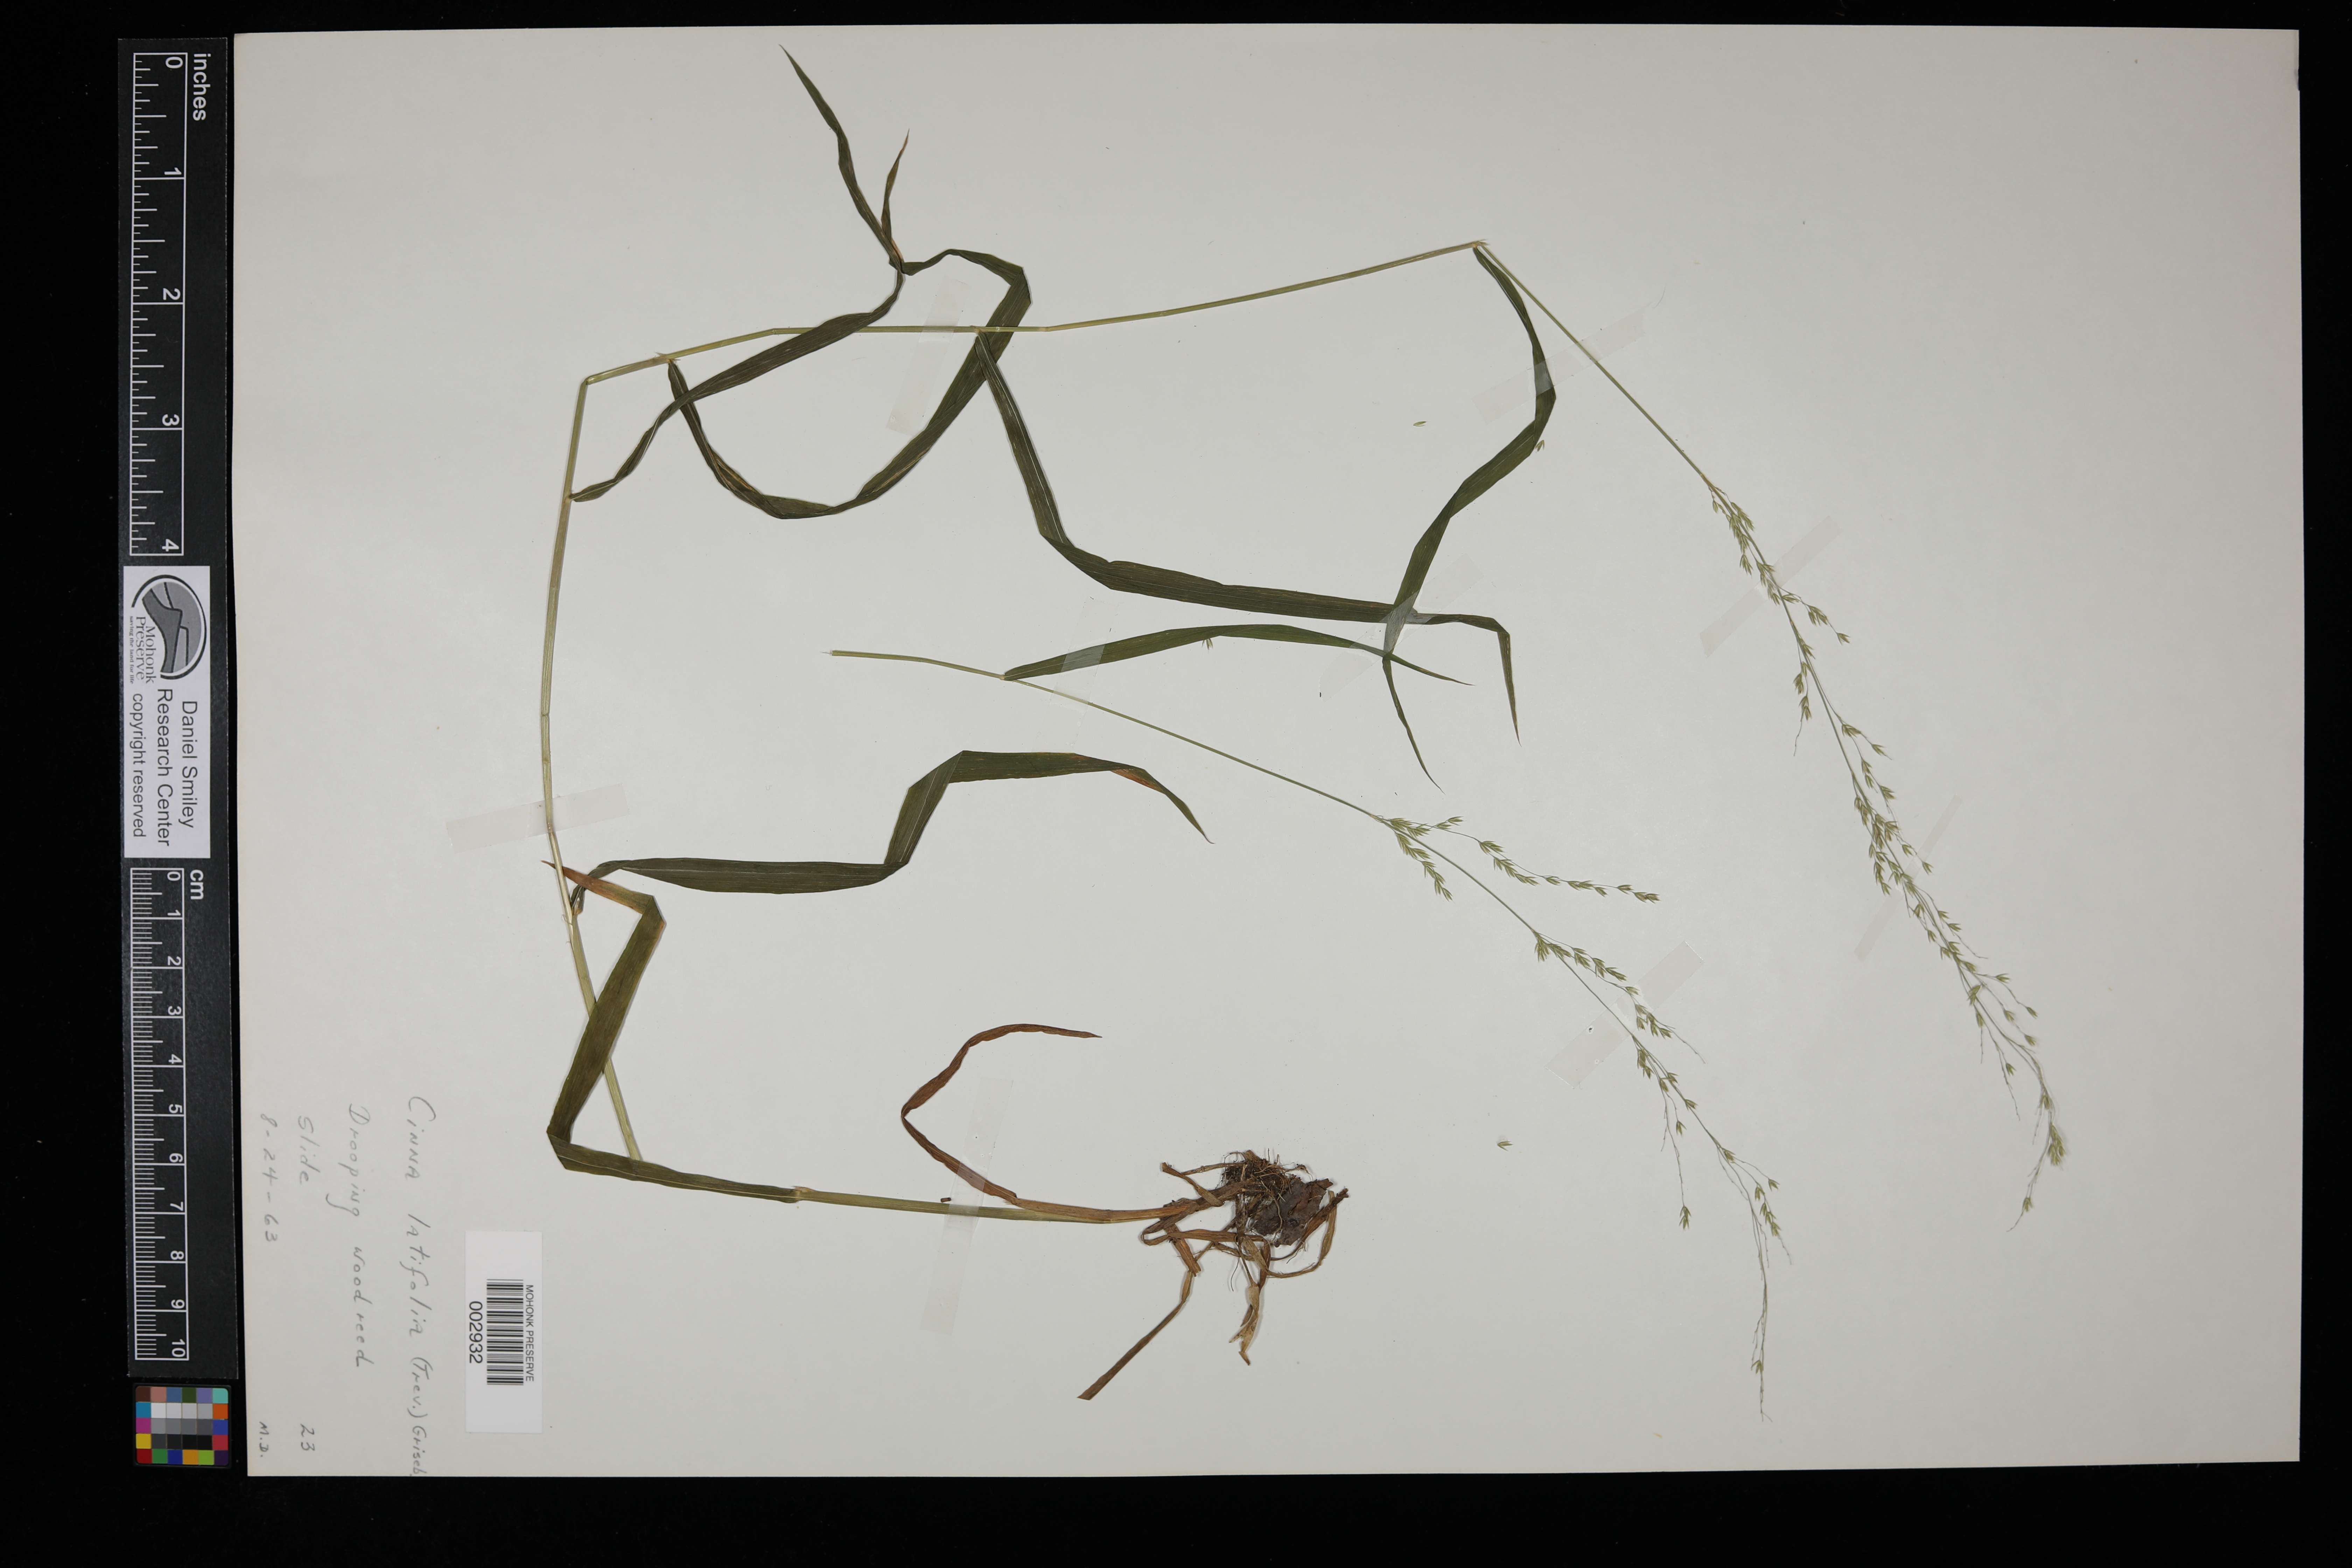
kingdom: Plantae
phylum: Tracheophyta
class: Liliopsida
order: Poales
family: Poaceae
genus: Cinna
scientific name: Cinna latifolia
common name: Drooping woodreed
